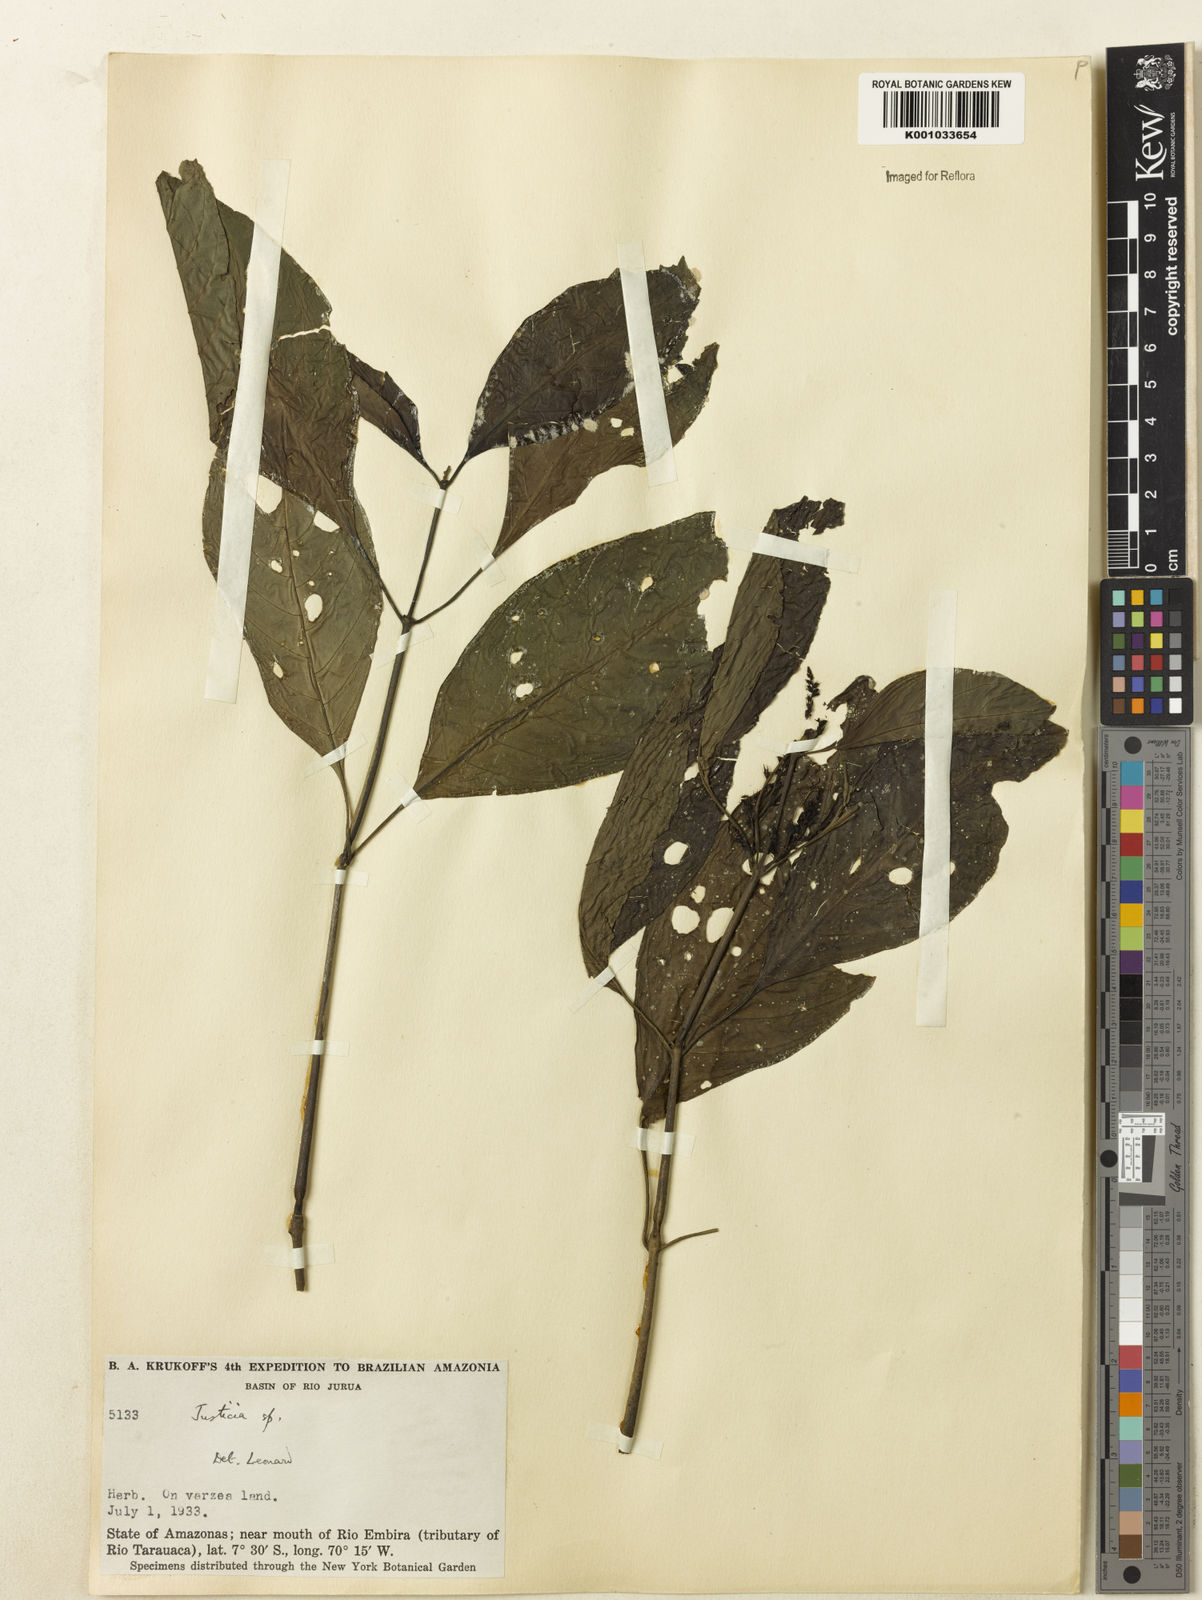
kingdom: Plantae
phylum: Tracheophyta
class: Magnoliopsida
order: Lamiales
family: Acanthaceae
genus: Justicia
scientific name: Justicia
